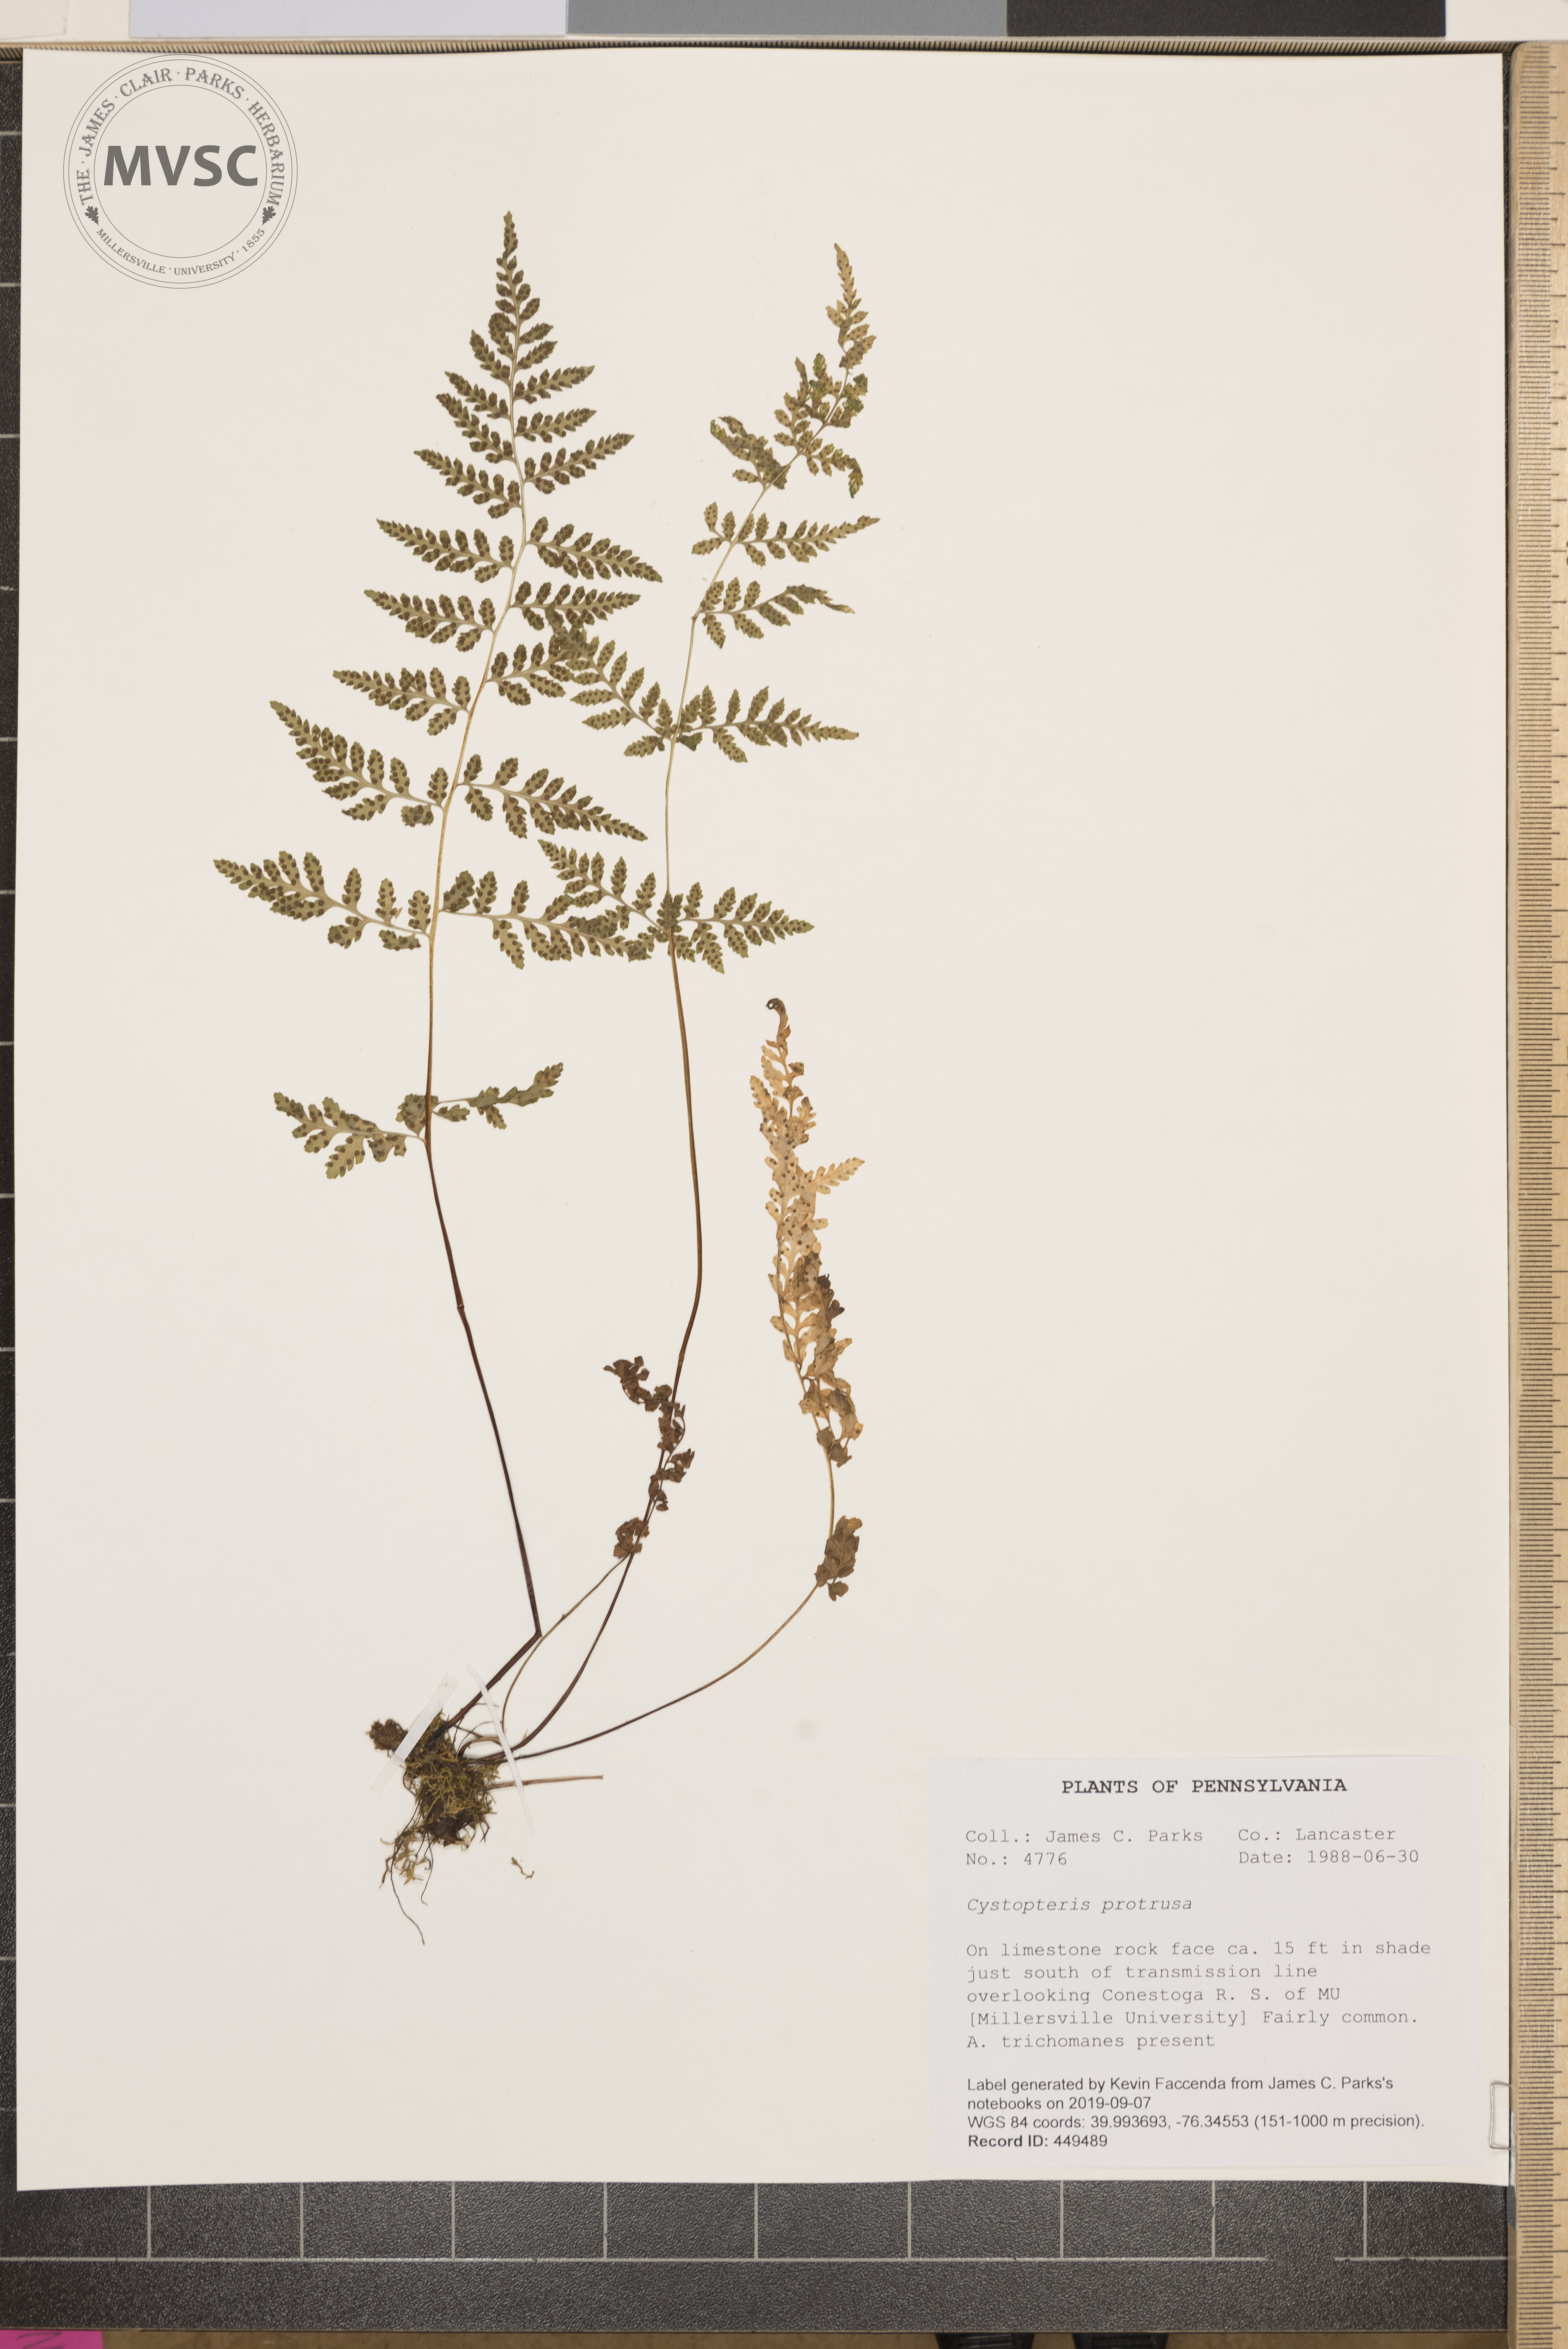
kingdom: Plantae
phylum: Tracheophyta
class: Polypodiopsida
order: Polypodiales
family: Cystopteridaceae
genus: Cystopteris
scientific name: Cystopteris protrusa
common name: Lowland brittle fern
